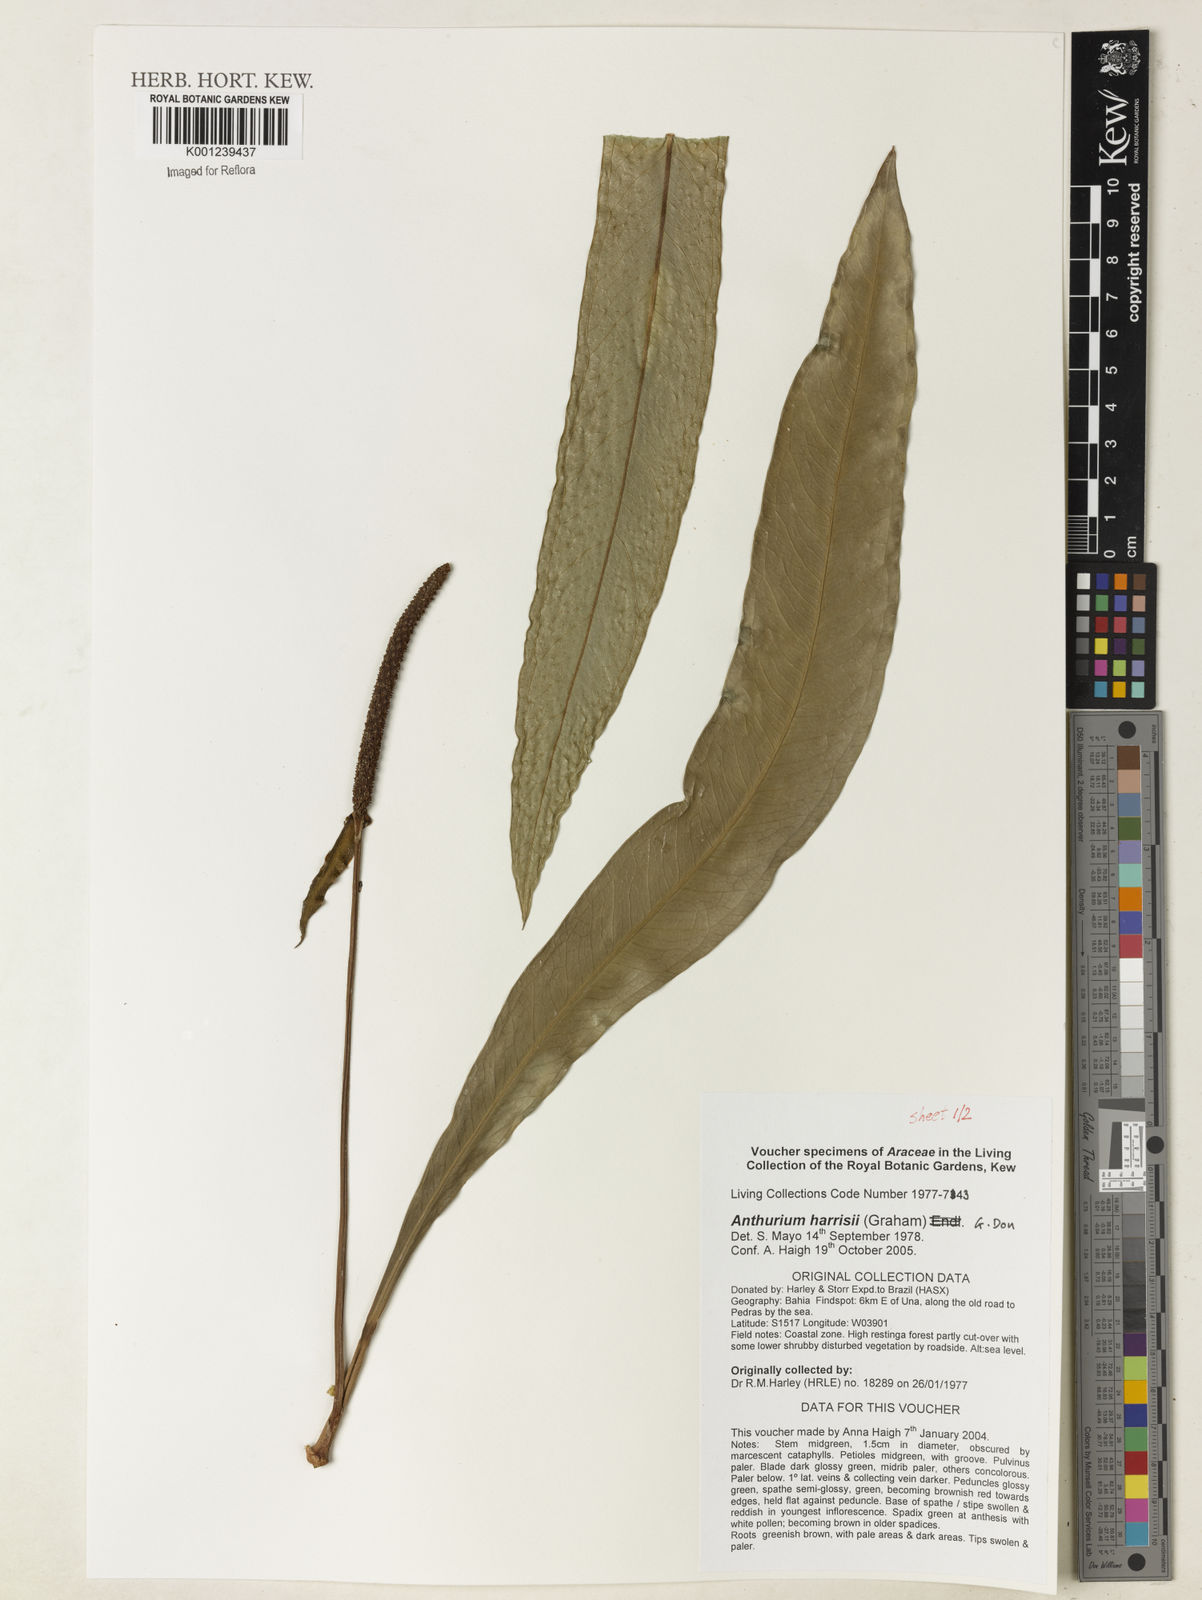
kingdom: Plantae
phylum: Tracheophyta
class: Liliopsida
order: Alismatales
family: Araceae
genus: Anthurium
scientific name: Anthurium harrisii
